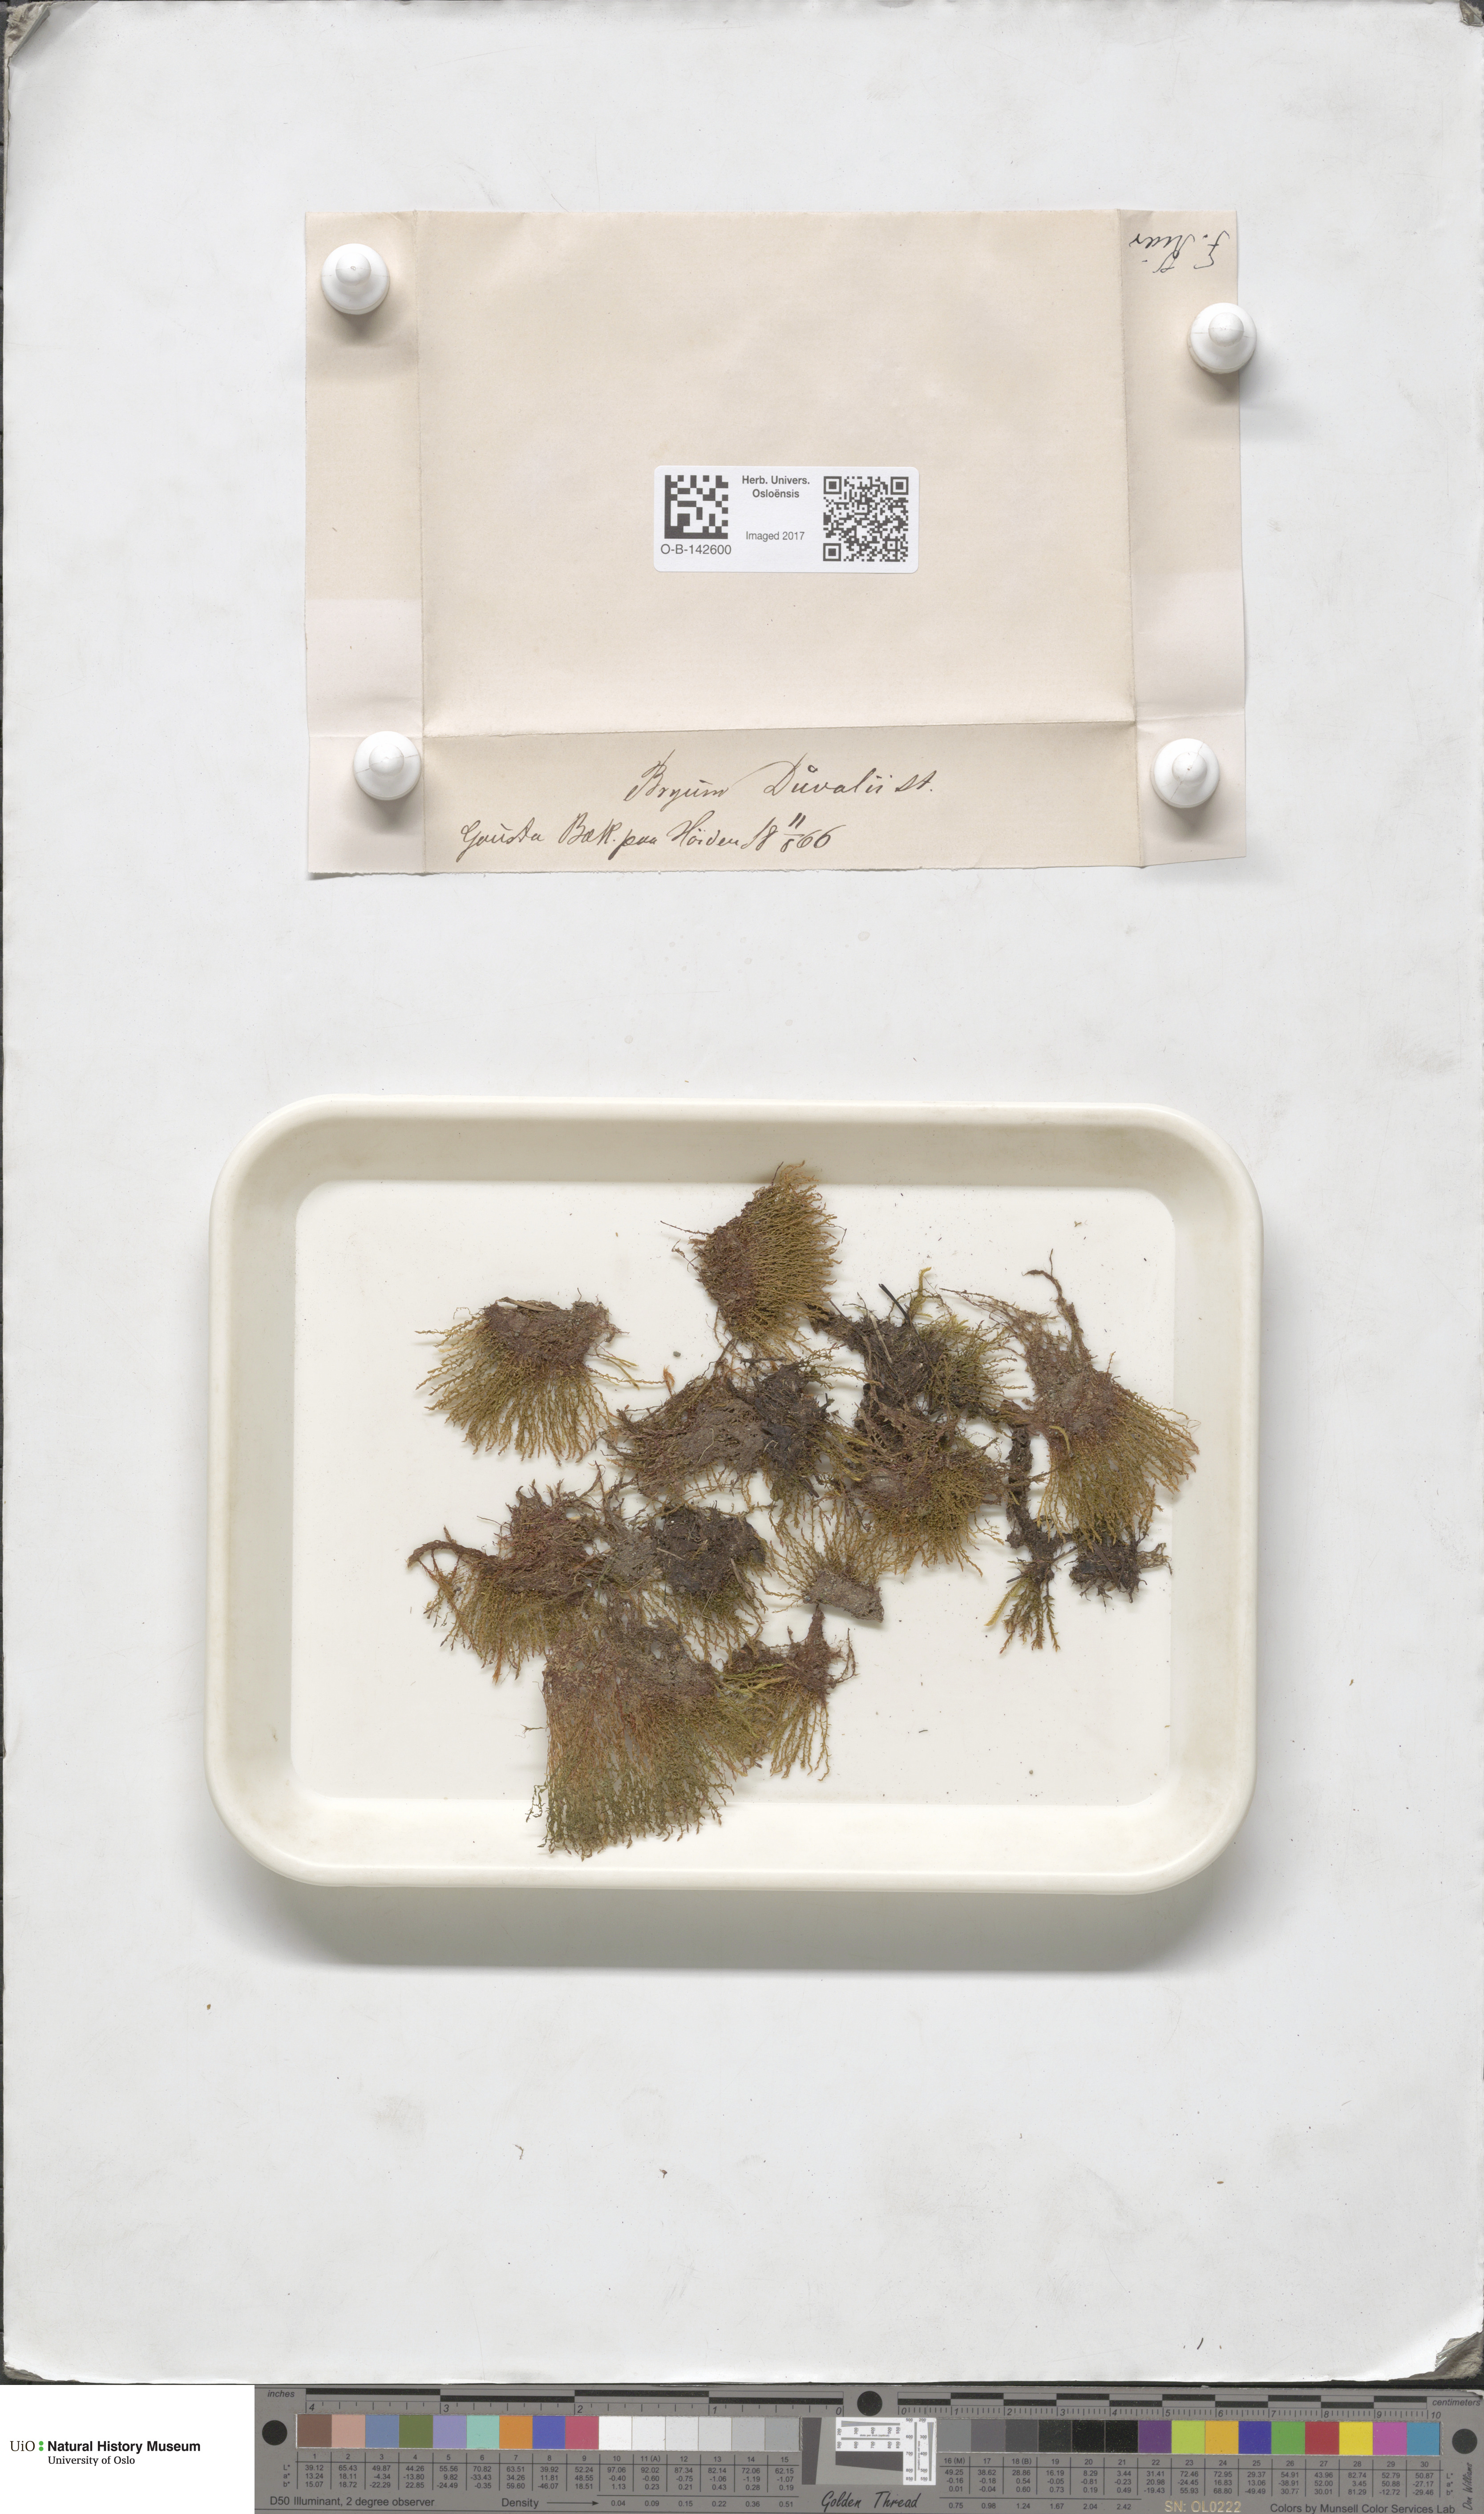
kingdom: Plantae
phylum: Bryophyta
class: Bryopsida
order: Bryales
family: Bryaceae
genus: Ptychostomum
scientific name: Ptychostomum weigelii
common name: Weigel's bryum moss
